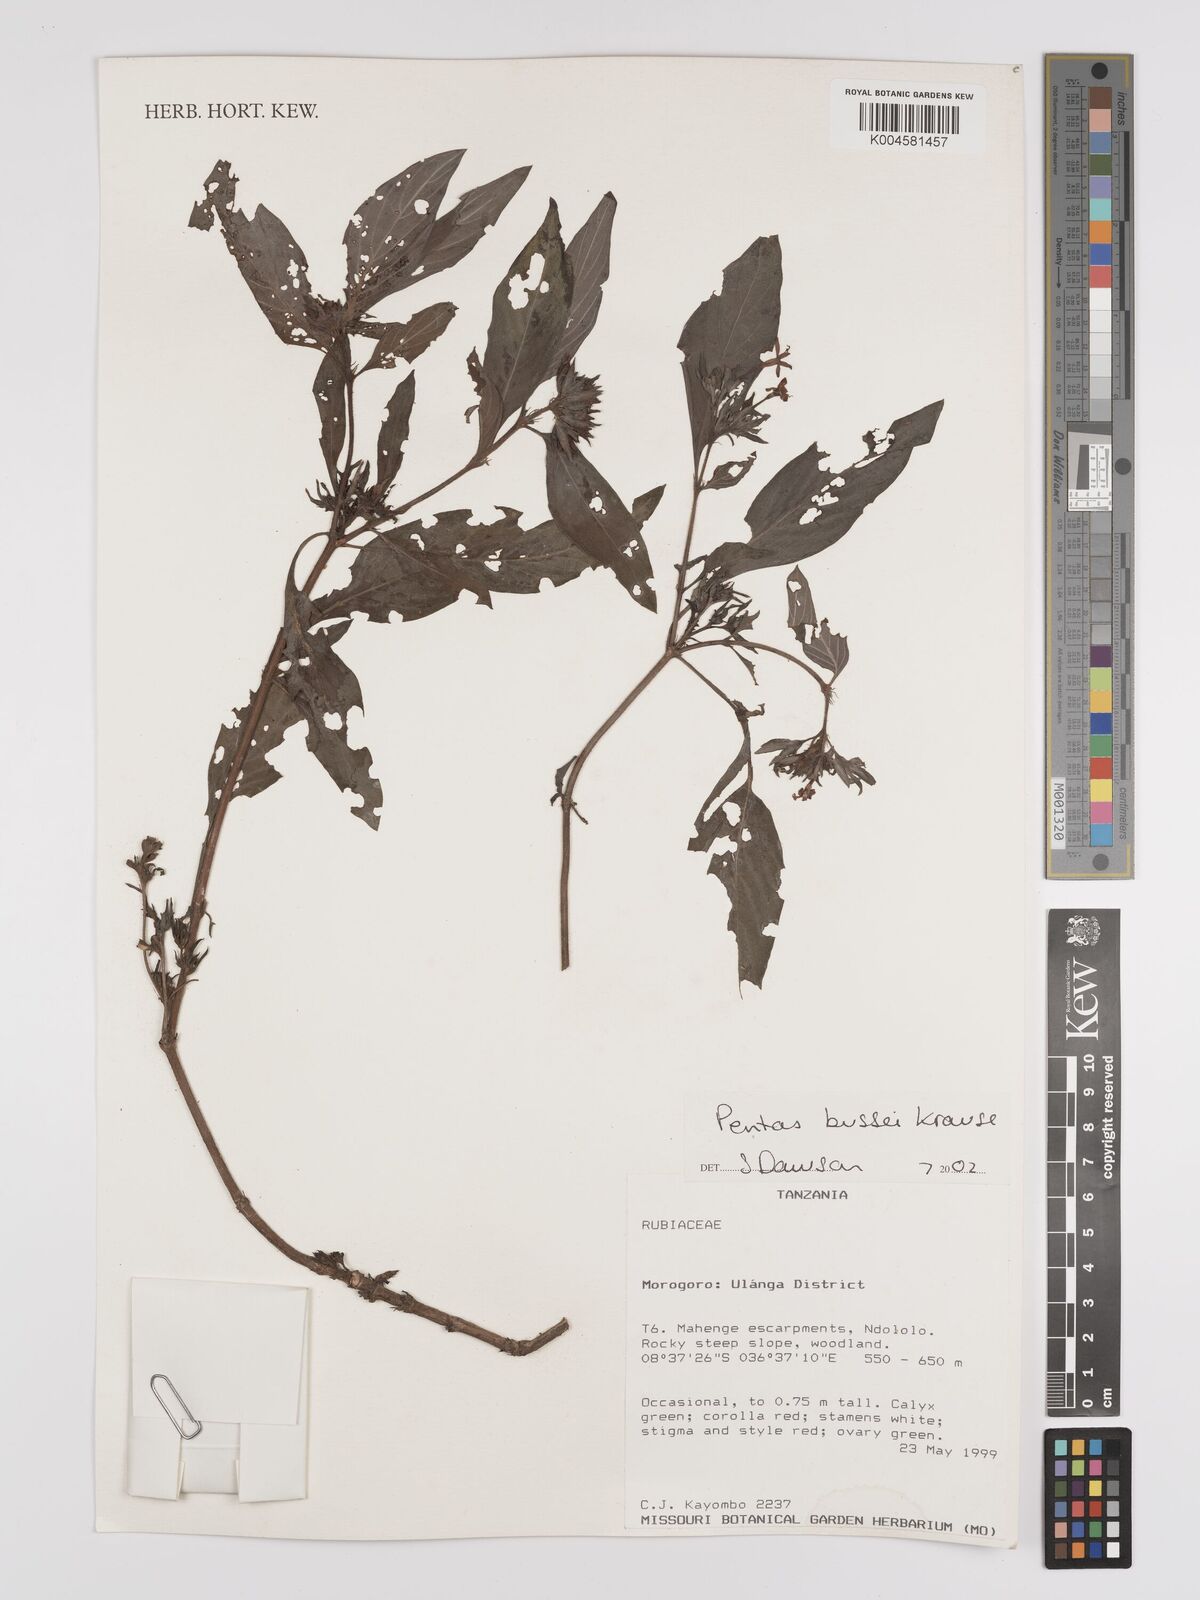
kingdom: Plantae
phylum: Tracheophyta
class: Magnoliopsida
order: Gentianales
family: Rubiaceae
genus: Rhodopentas
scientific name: Rhodopentas bussei
